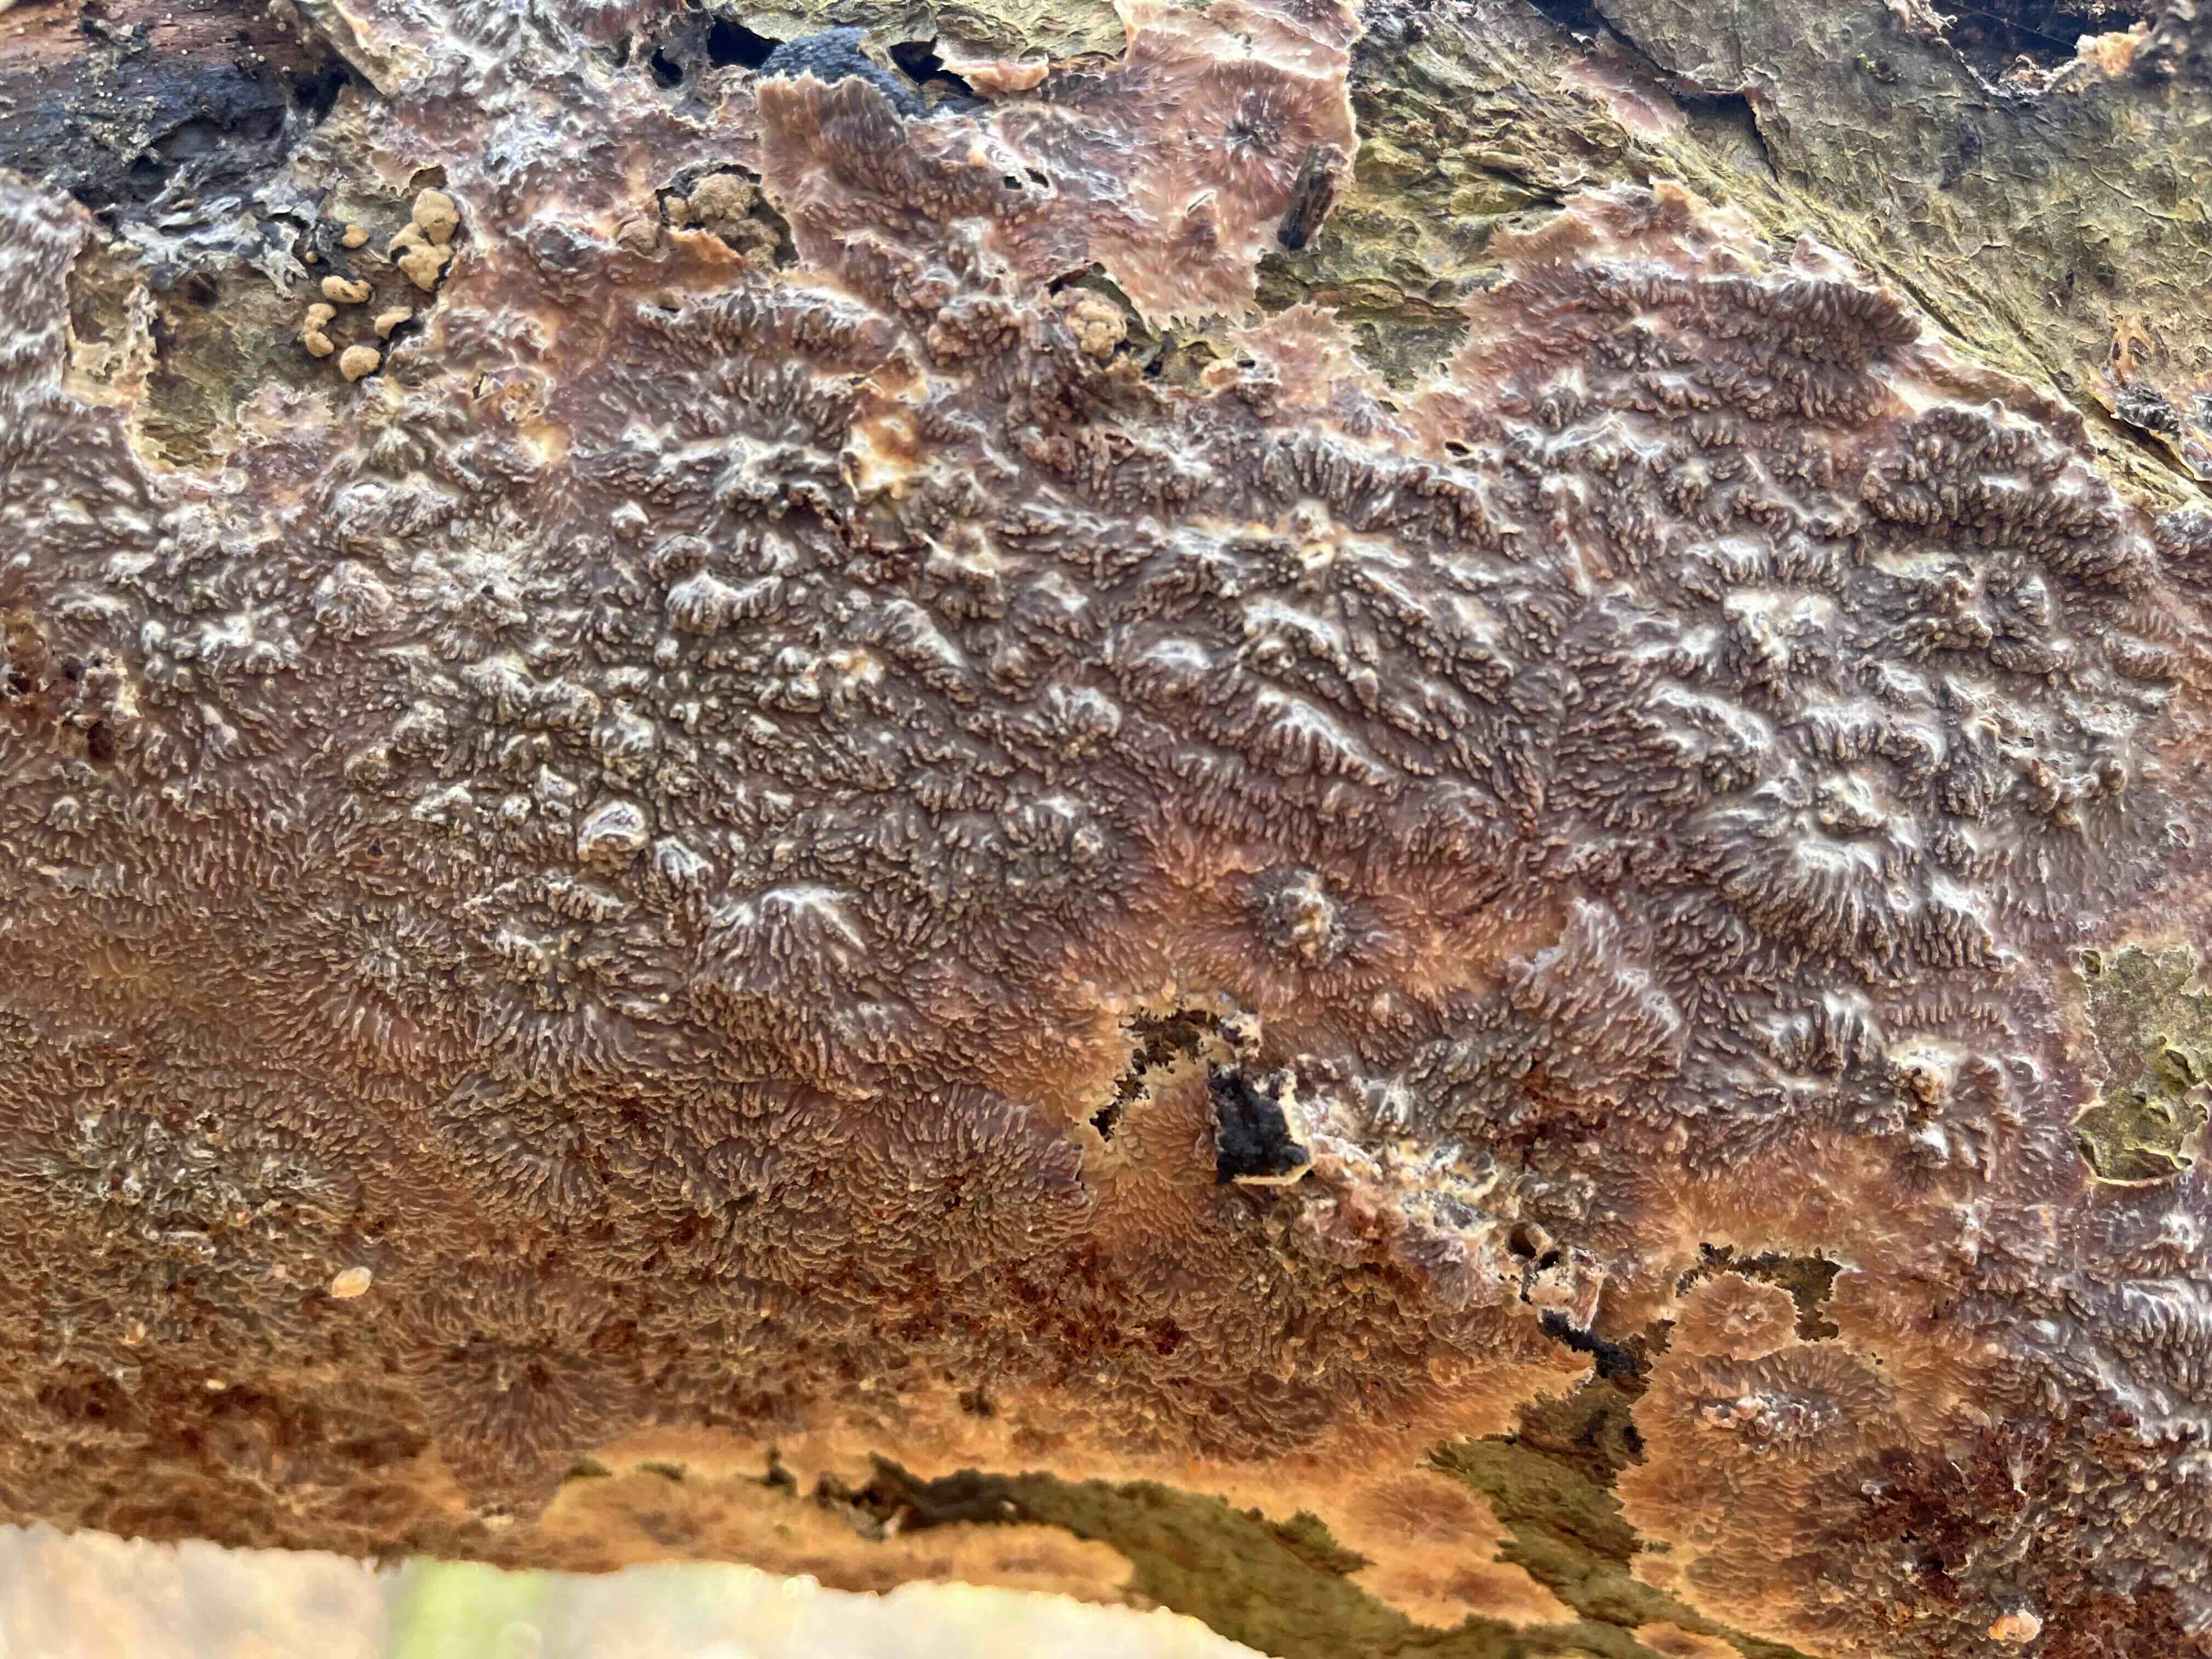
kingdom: Fungi
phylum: Basidiomycota
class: Agaricomycetes
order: Polyporales
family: Meruliaceae
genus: Phlebia
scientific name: Phlebia radiata
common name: stråle-åresvamp
